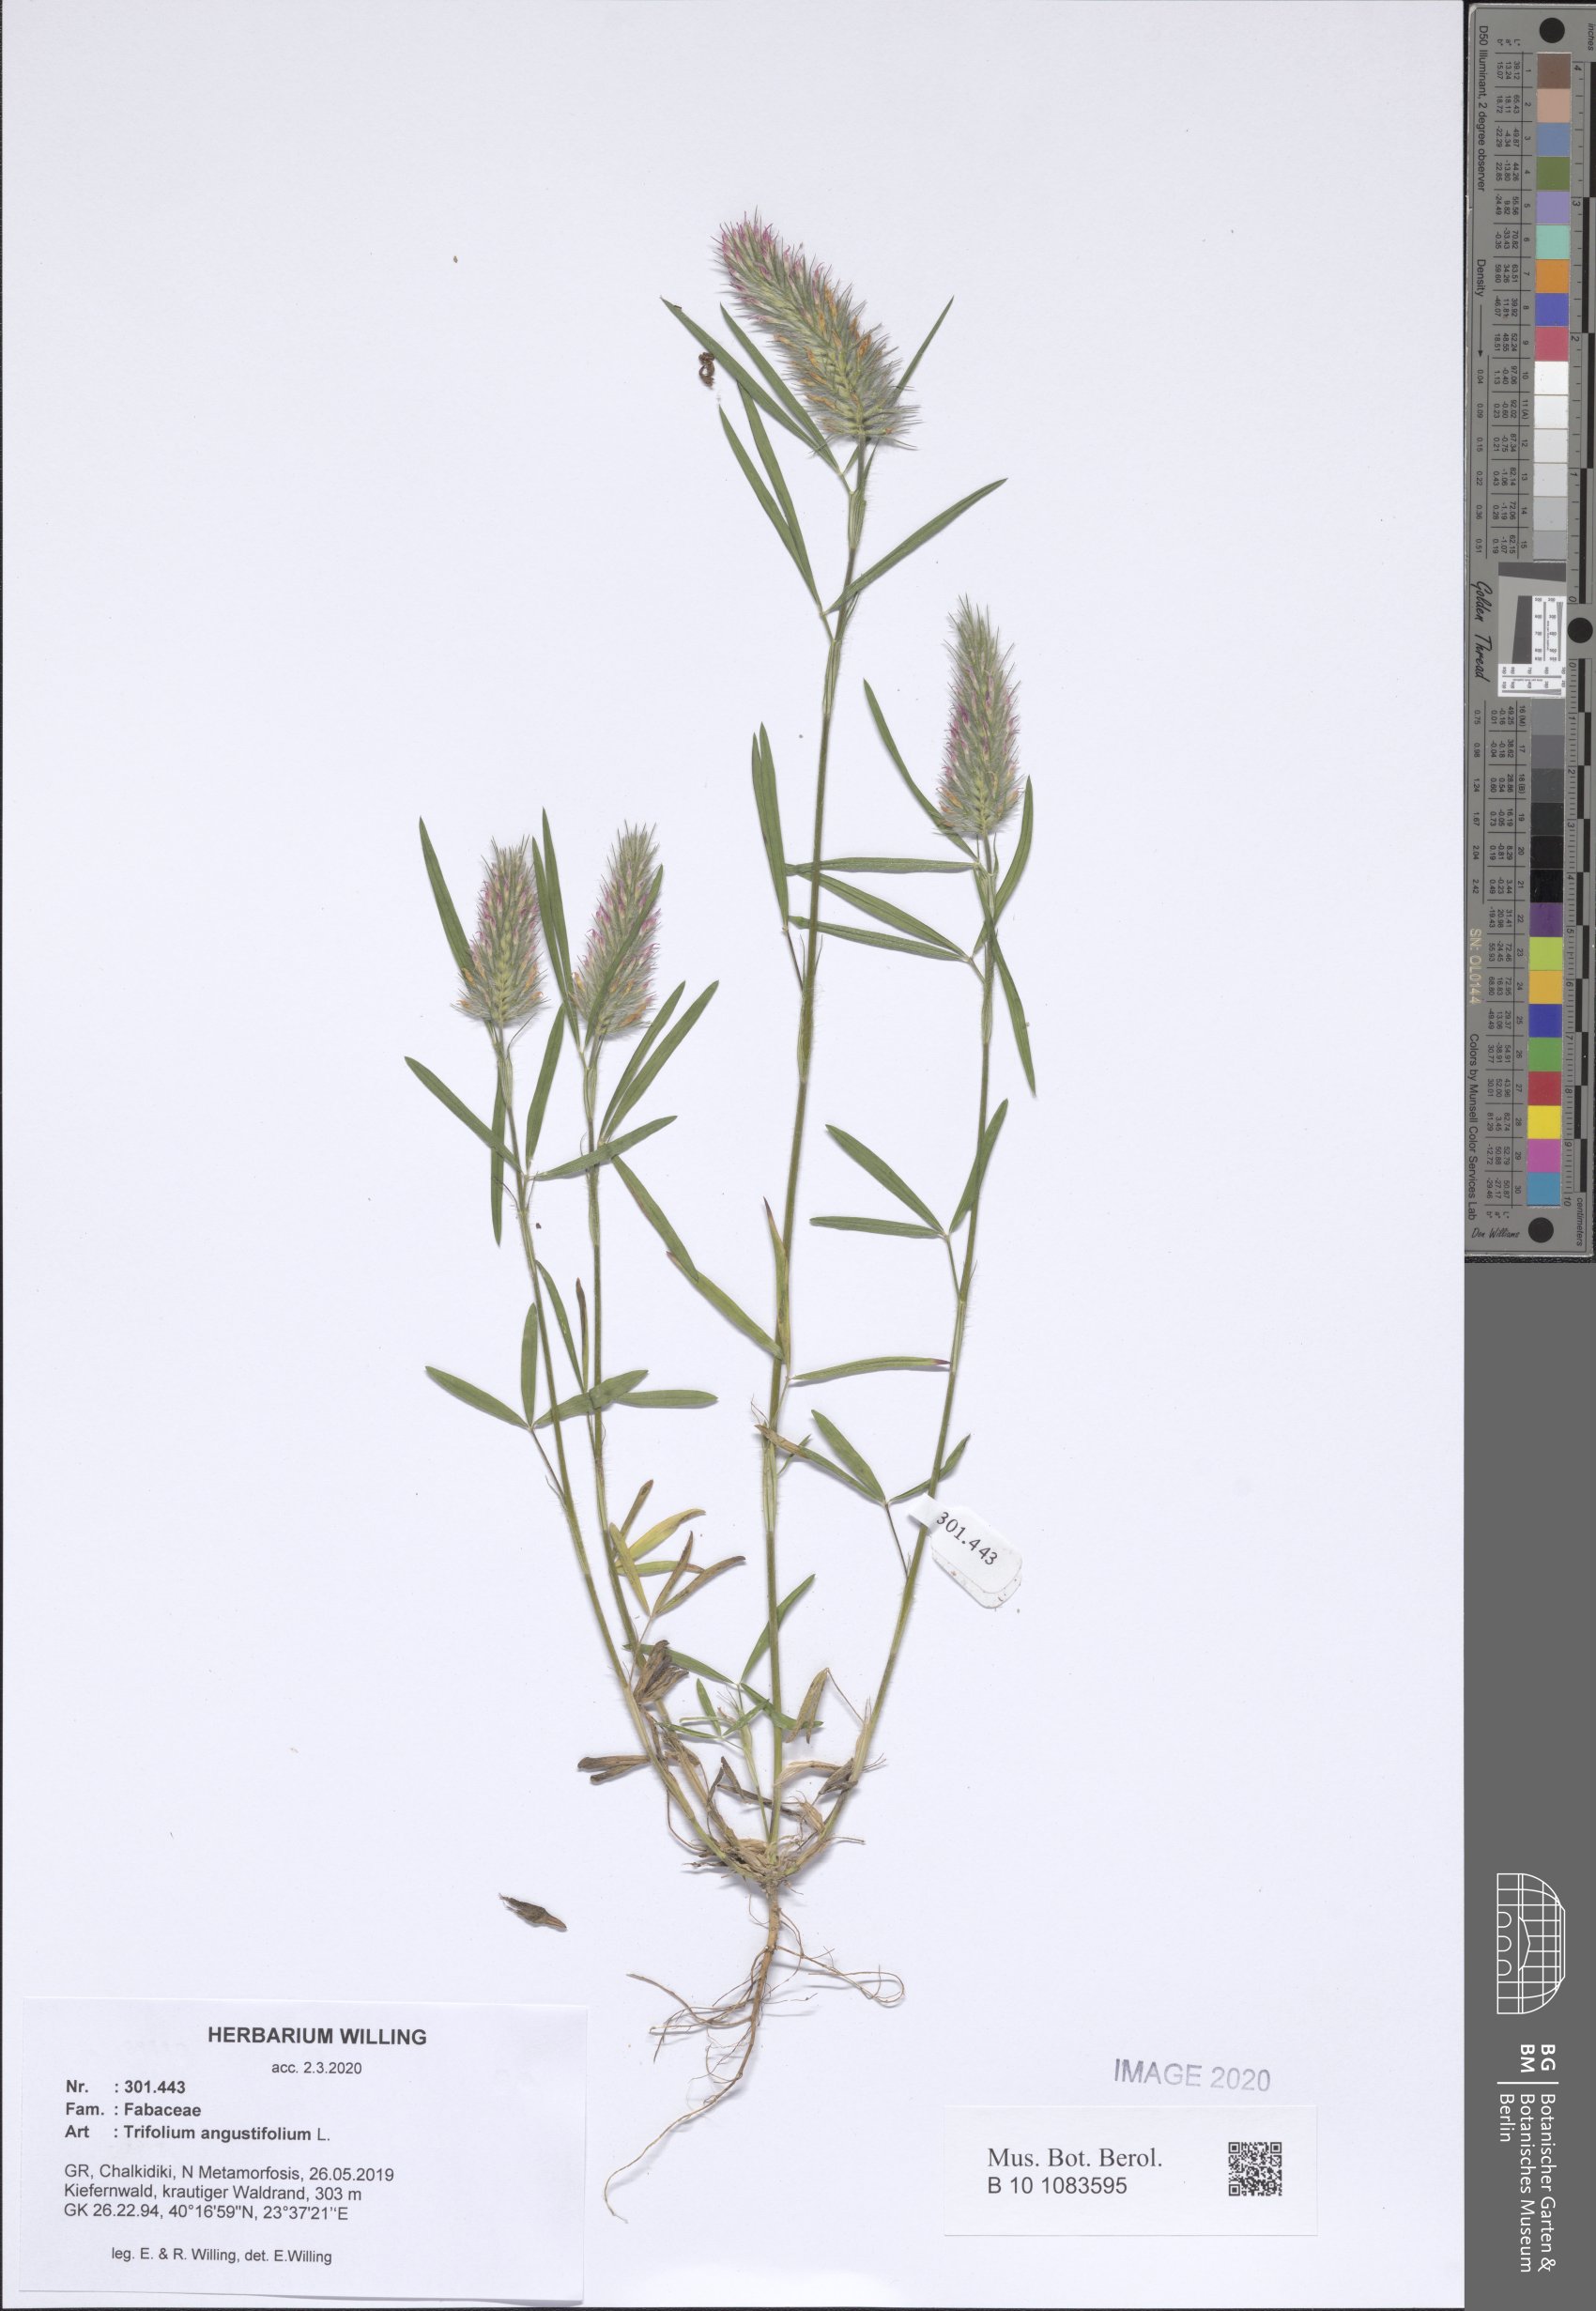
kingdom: Plantae
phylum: Tracheophyta
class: Magnoliopsida
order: Fabales
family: Fabaceae
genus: Trifolium
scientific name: Trifolium angustifolium
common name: Narrow clover
